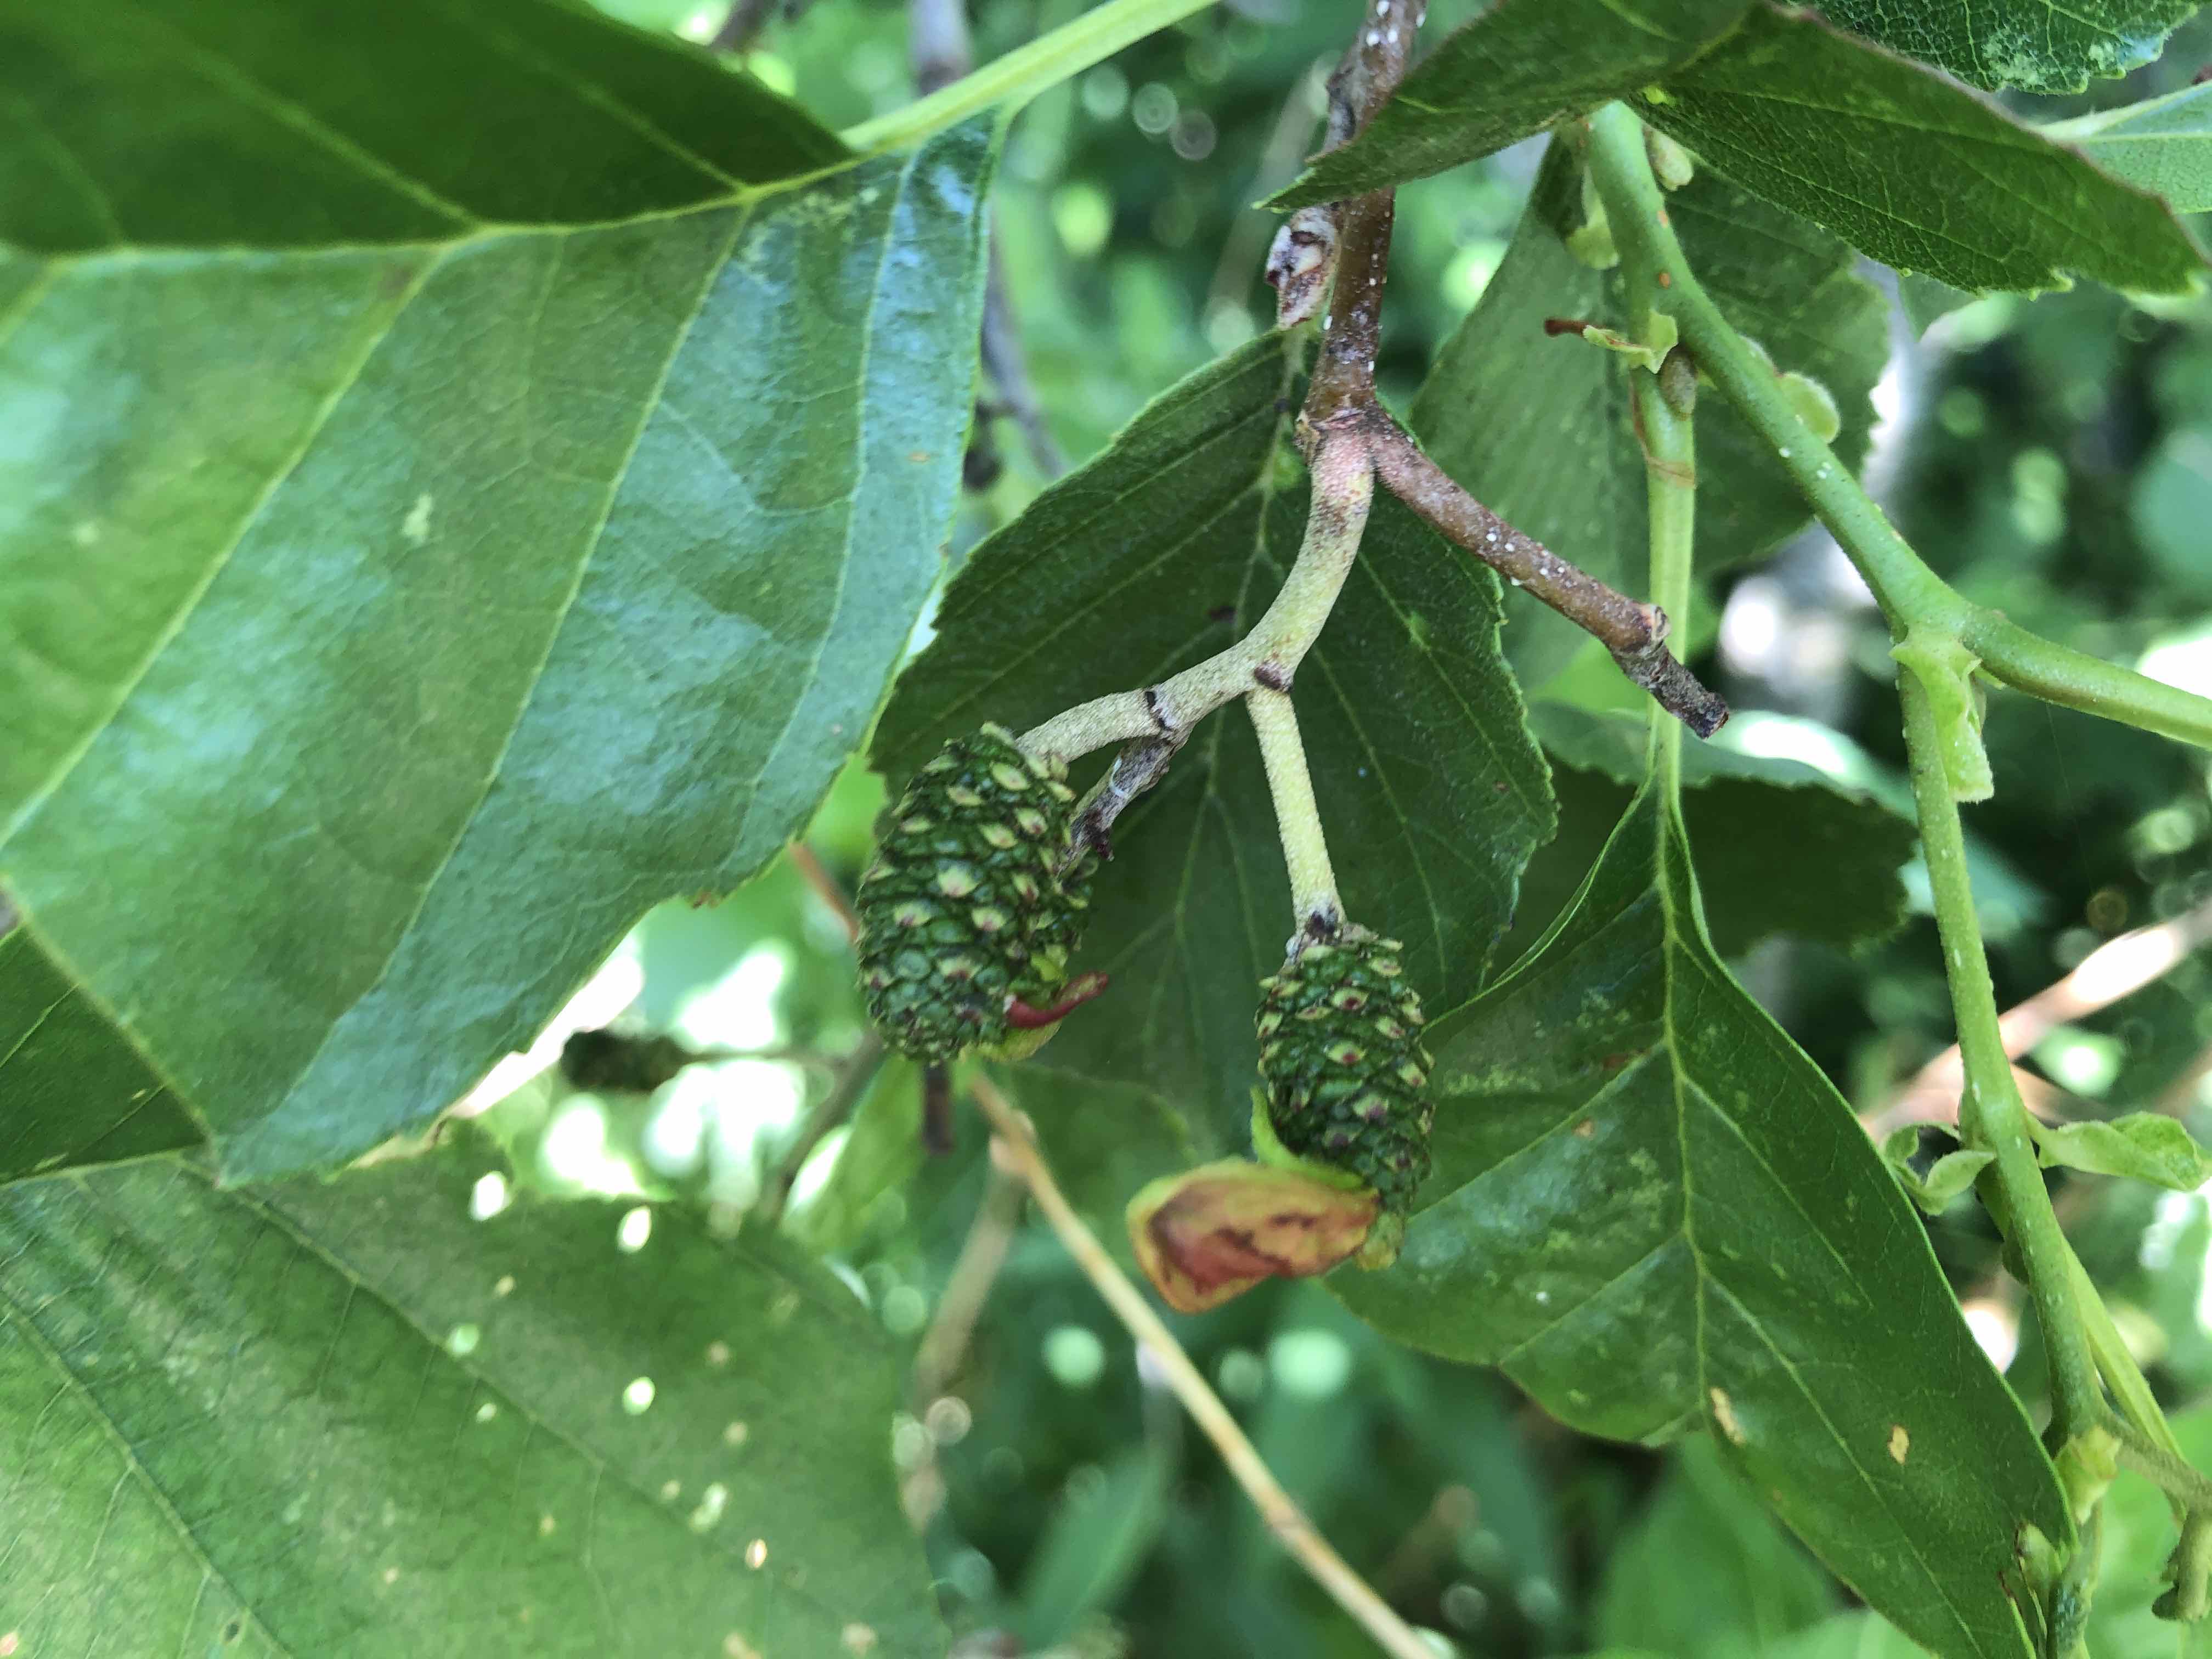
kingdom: Fungi
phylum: Ascomycota
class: Taphrinomycetes
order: Taphrinales
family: Taphrinaceae
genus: Taphrina
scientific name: Taphrina alni
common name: Alder tongue
